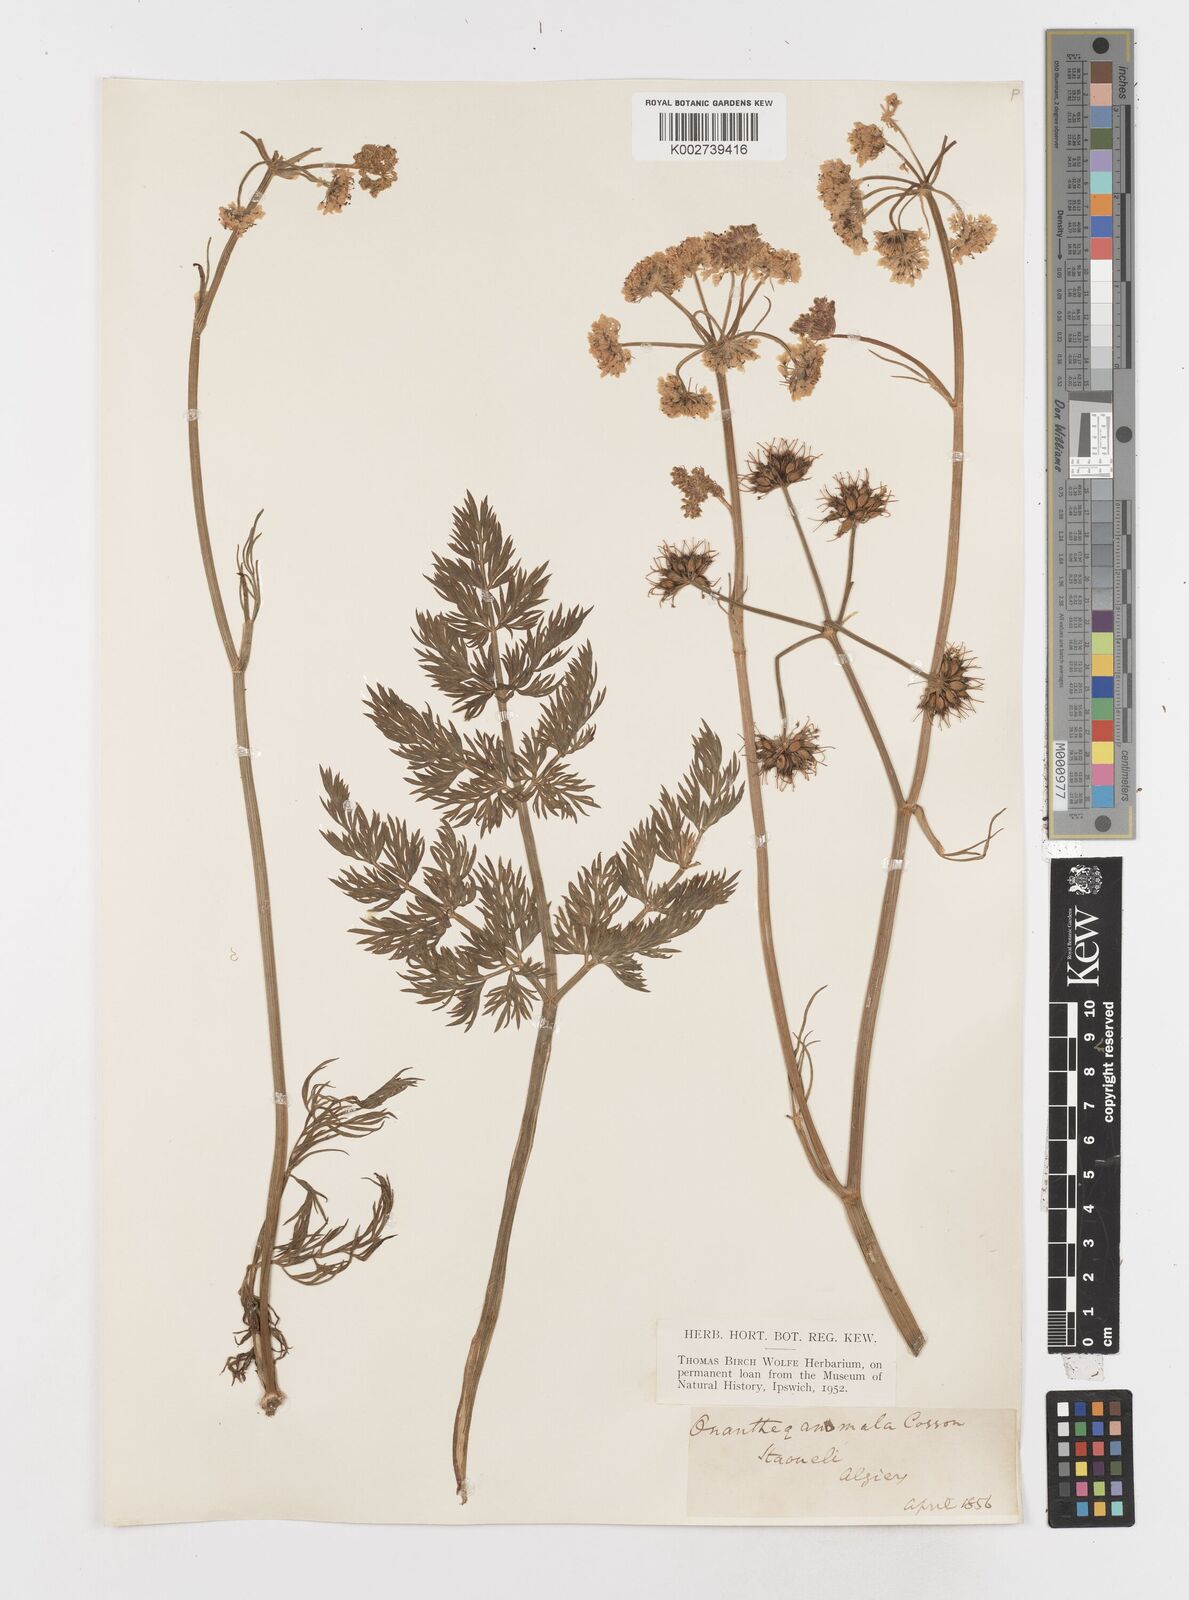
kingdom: Plantae
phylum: Tracheophyta
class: Magnoliopsida
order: Apiales
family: Apiaceae
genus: Oenanthe
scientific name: Oenanthe virgata
